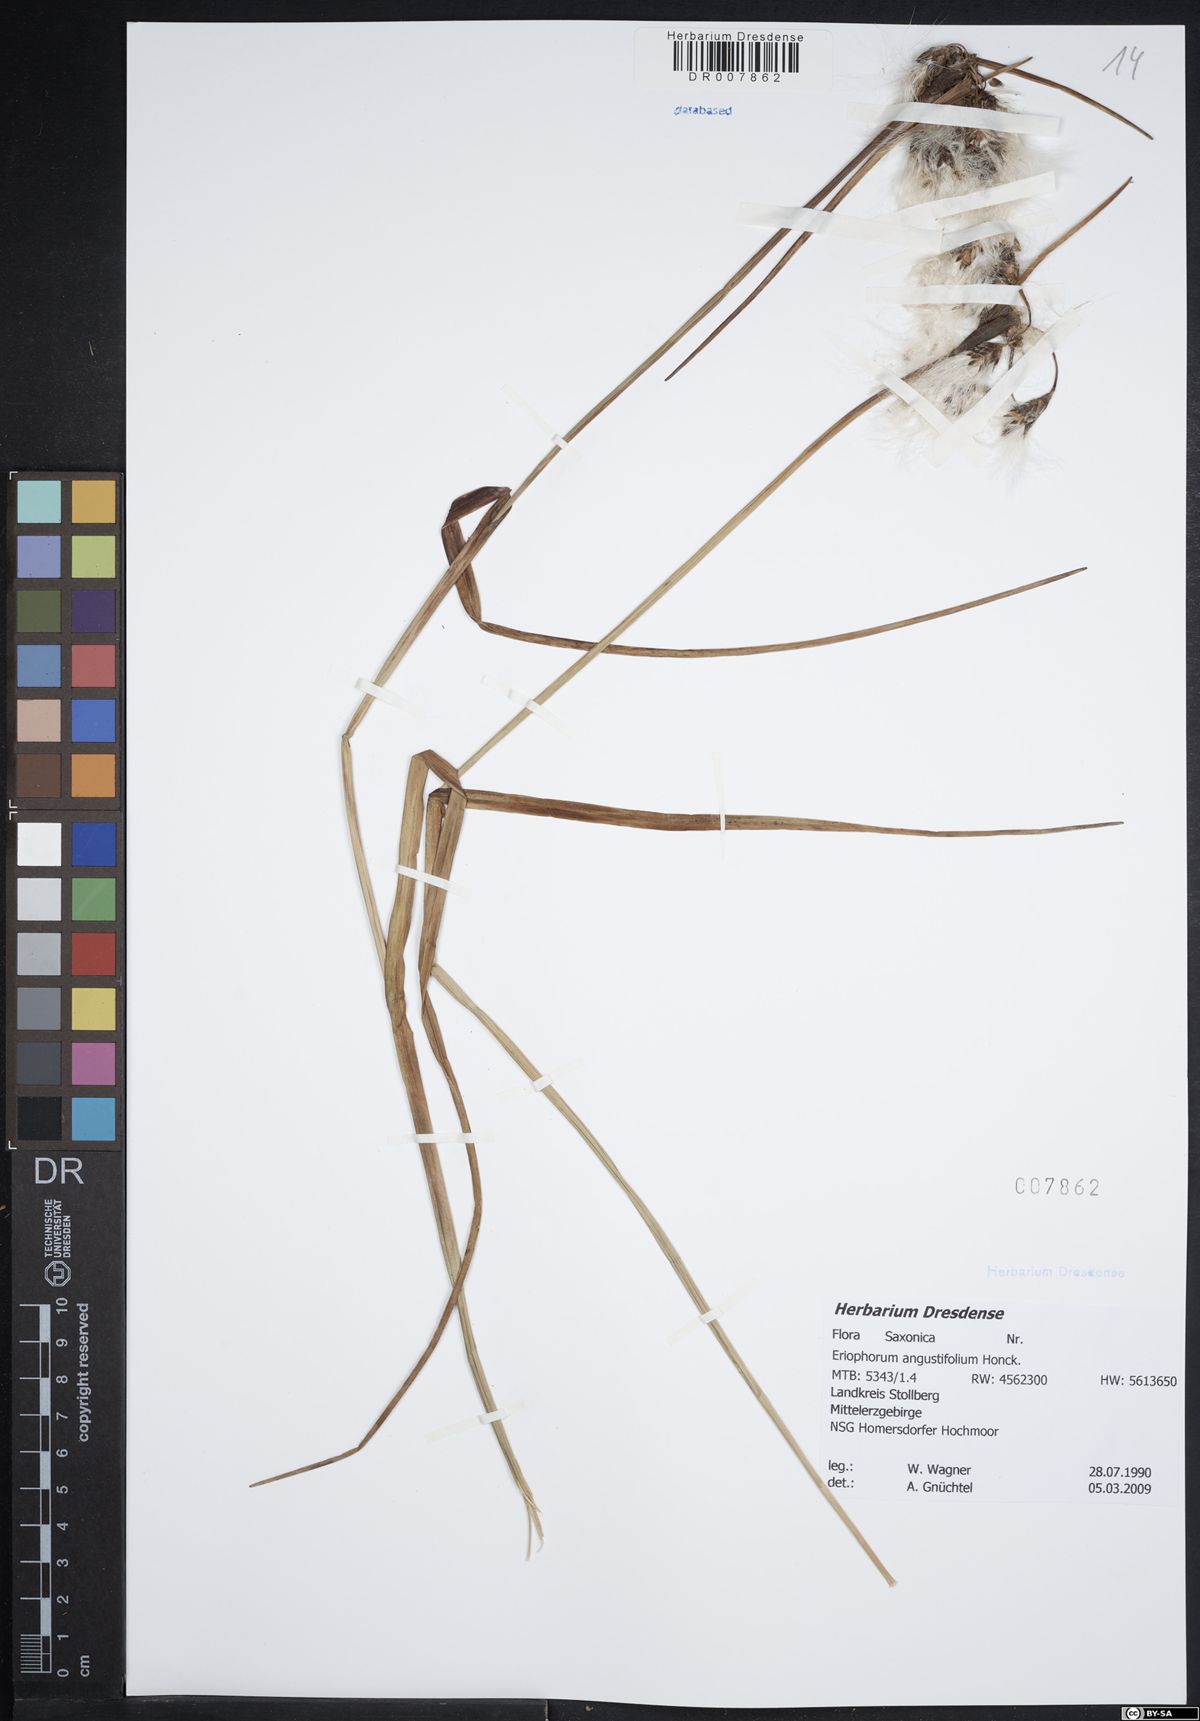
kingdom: Plantae
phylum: Tracheophyta
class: Liliopsida
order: Poales
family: Cyperaceae
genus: Eriophorum
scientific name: Eriophorum angustifolium
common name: Common cottongrass
